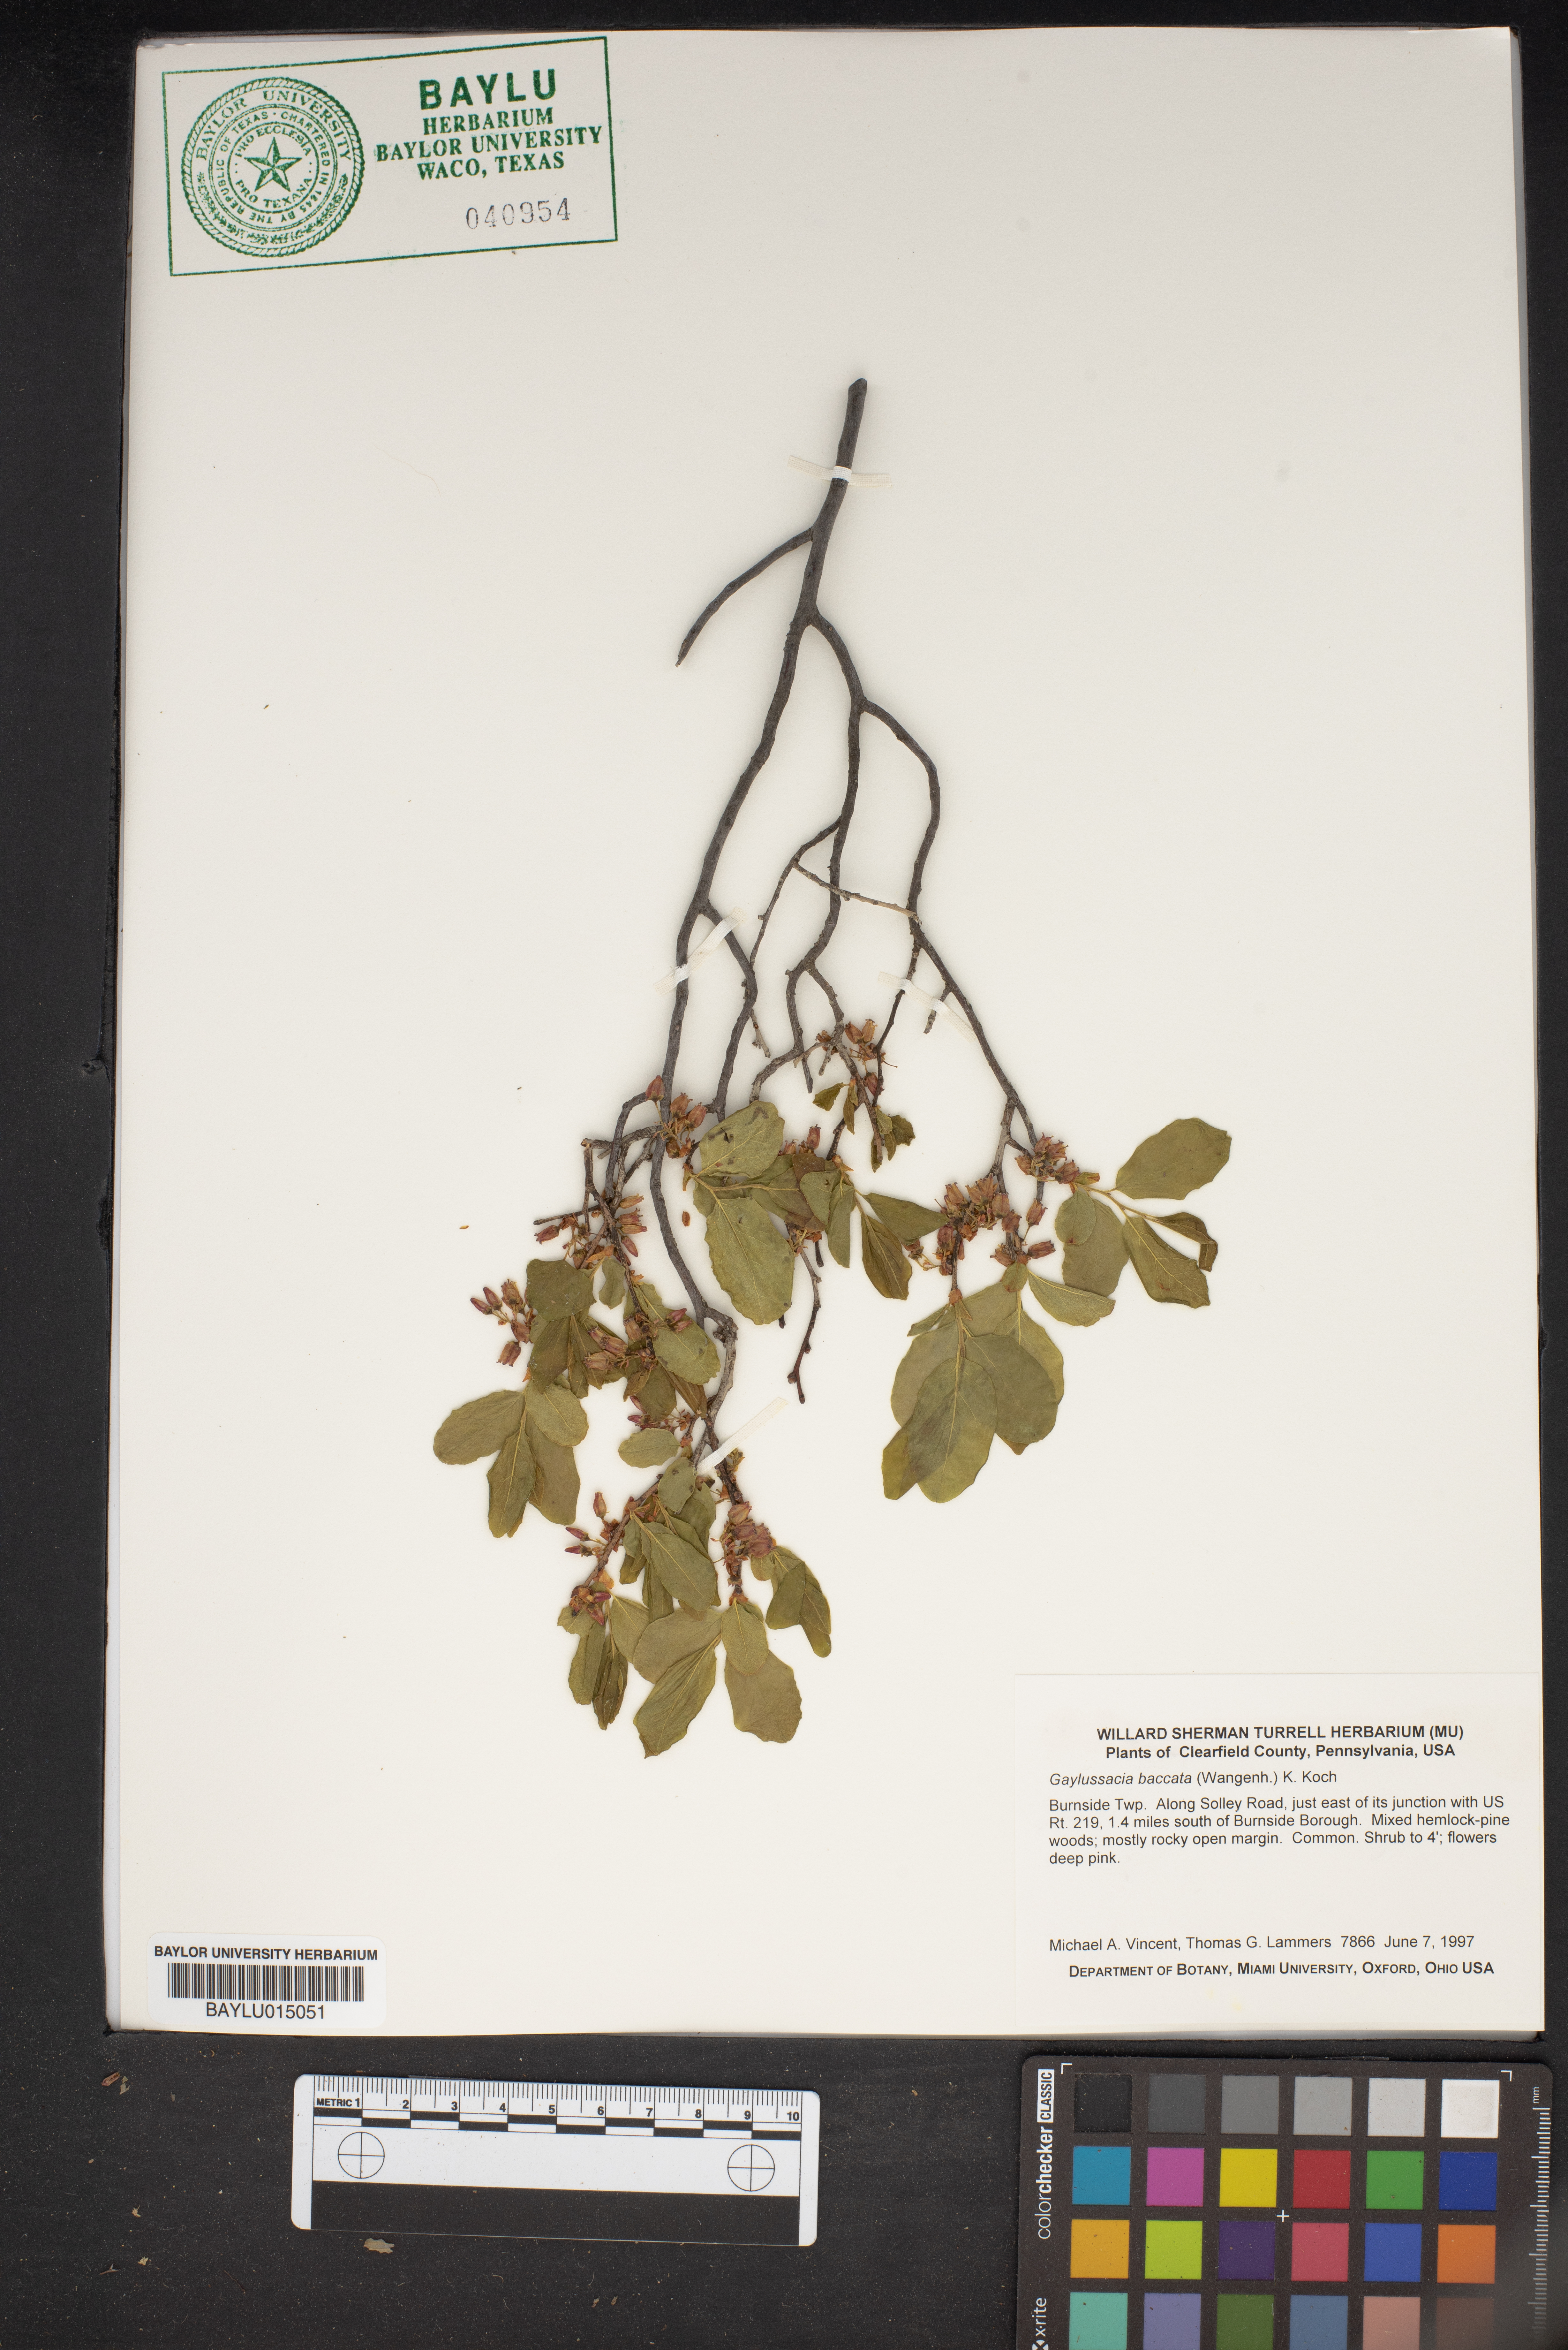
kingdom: Plantae
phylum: Tracheophyta
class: Magnoliopsida
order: Ericales
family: Ericaceae
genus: Gaylussacia
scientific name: Gaylussacia baccata
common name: Black huckleberry
